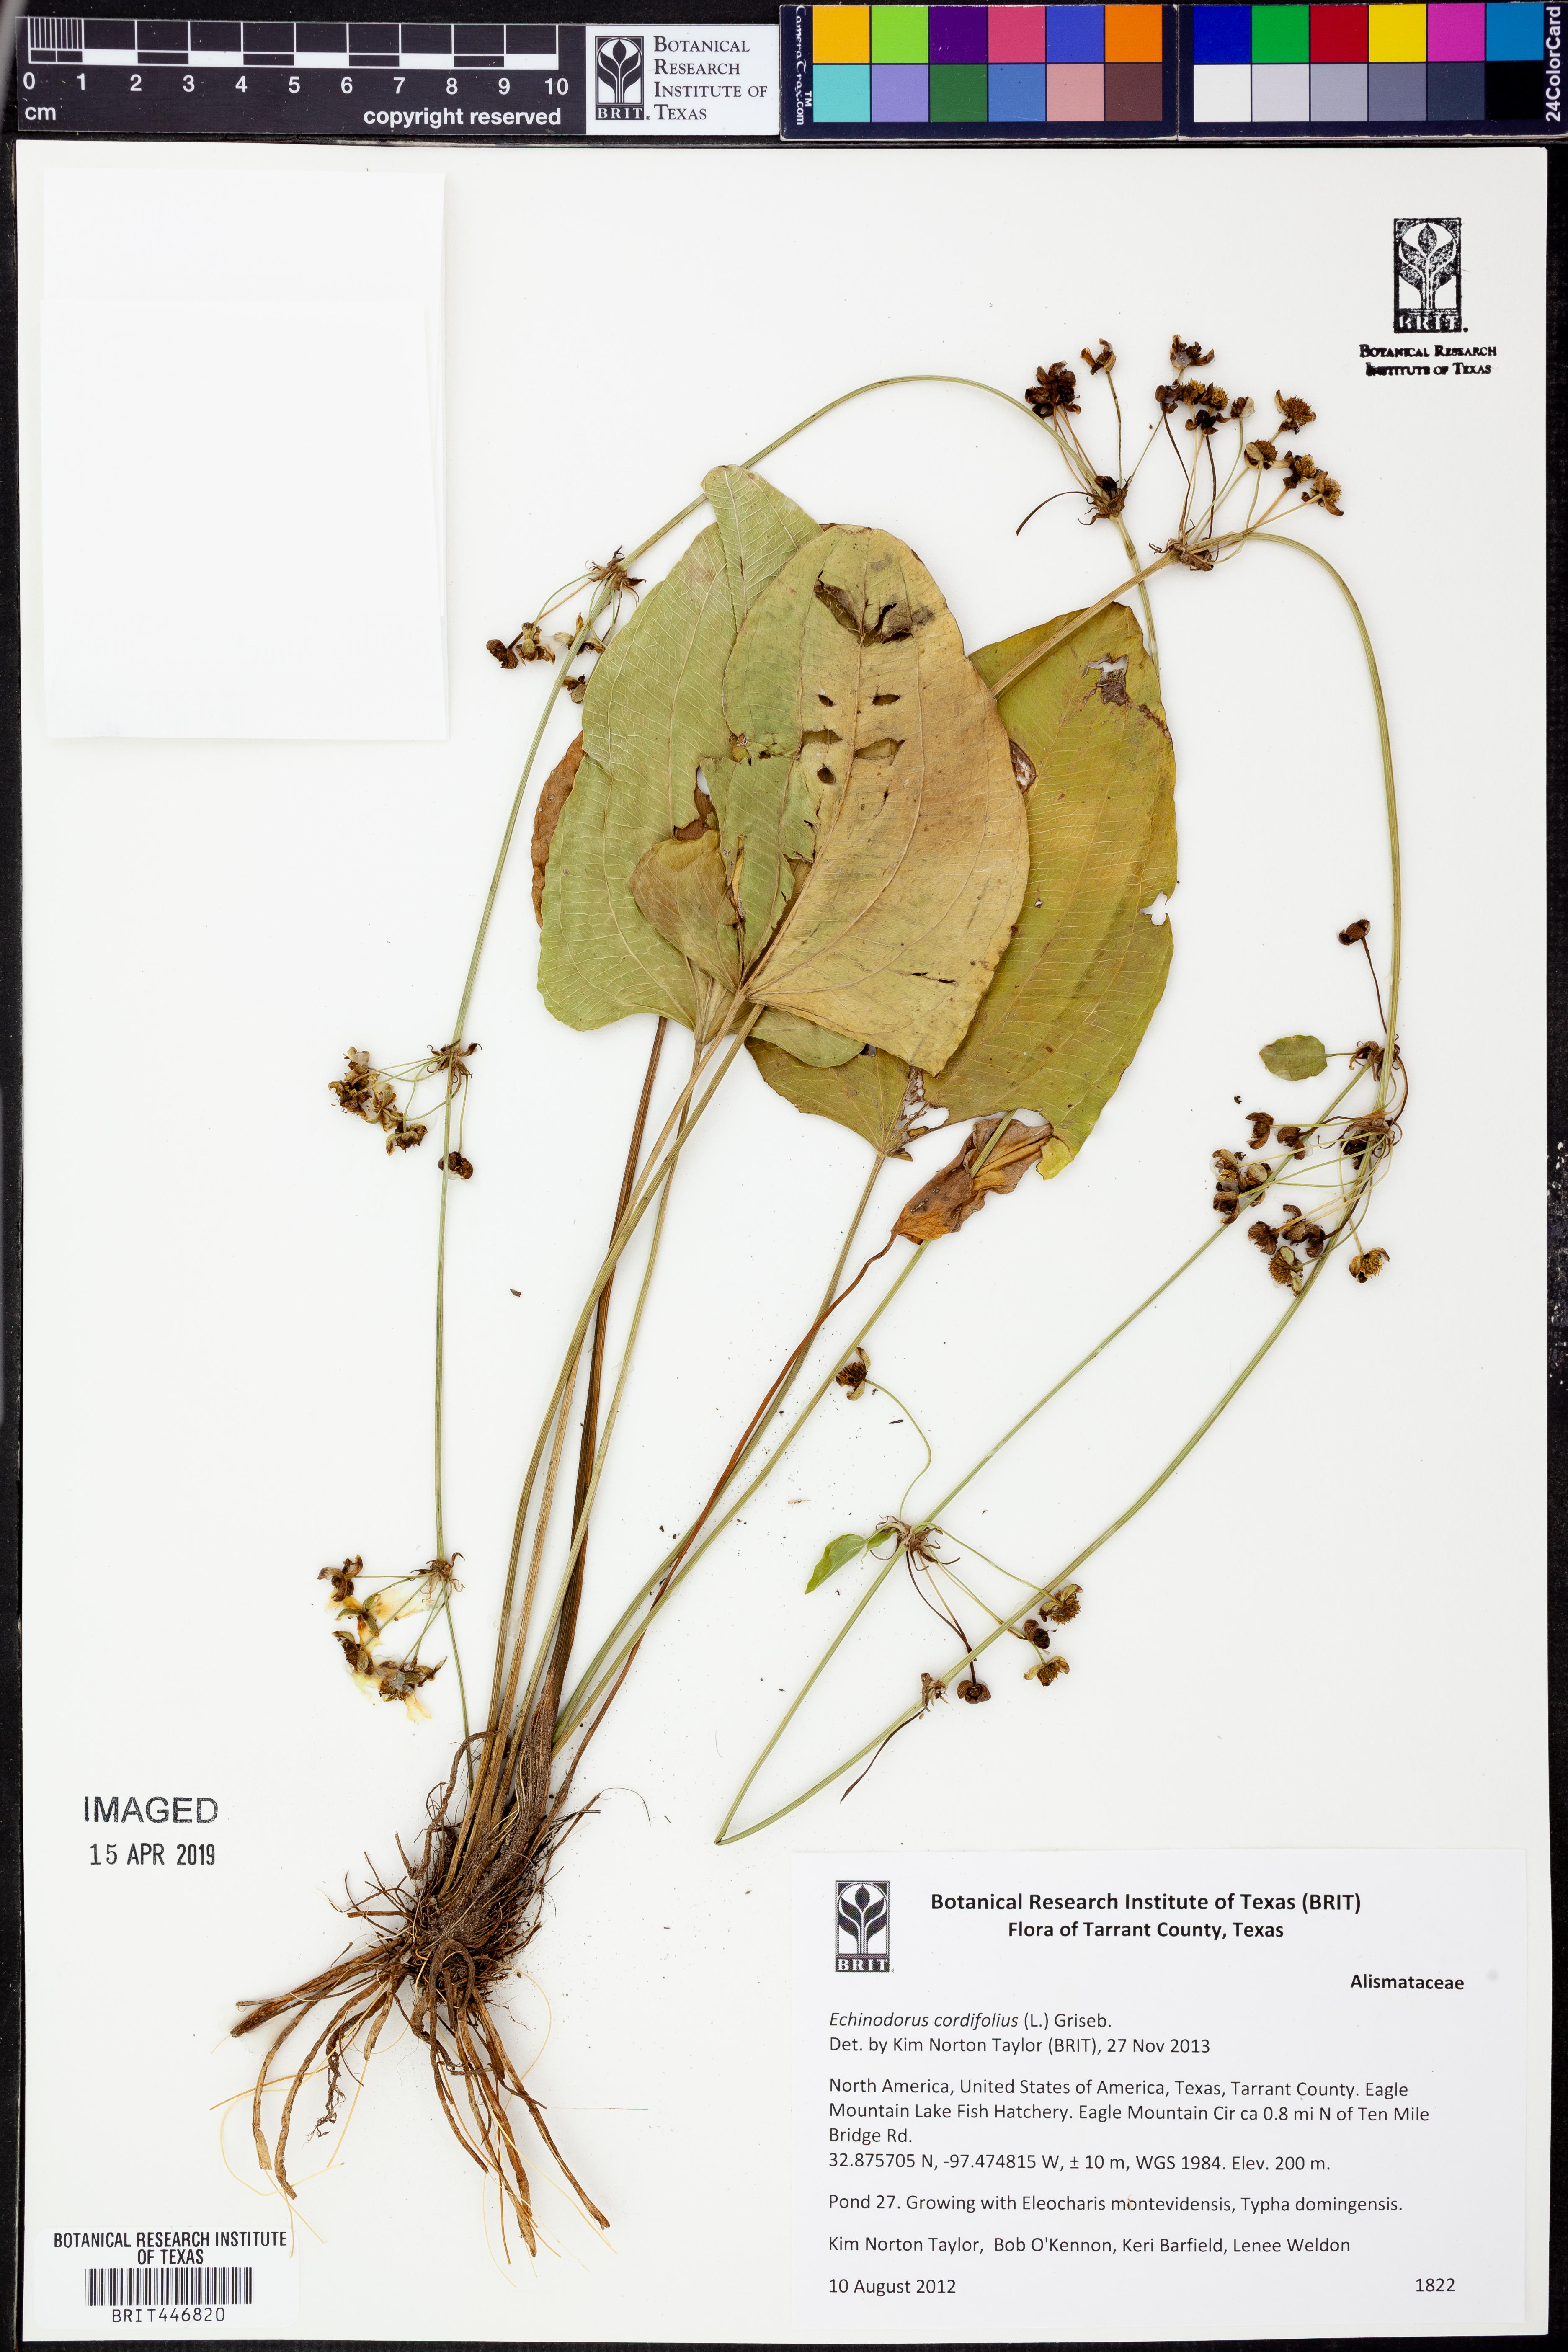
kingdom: Plantae
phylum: Tracheophyta
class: Liliopsida
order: Alismatales
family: Alismataceae
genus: Aquarius
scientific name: Aquarius cordifolius
